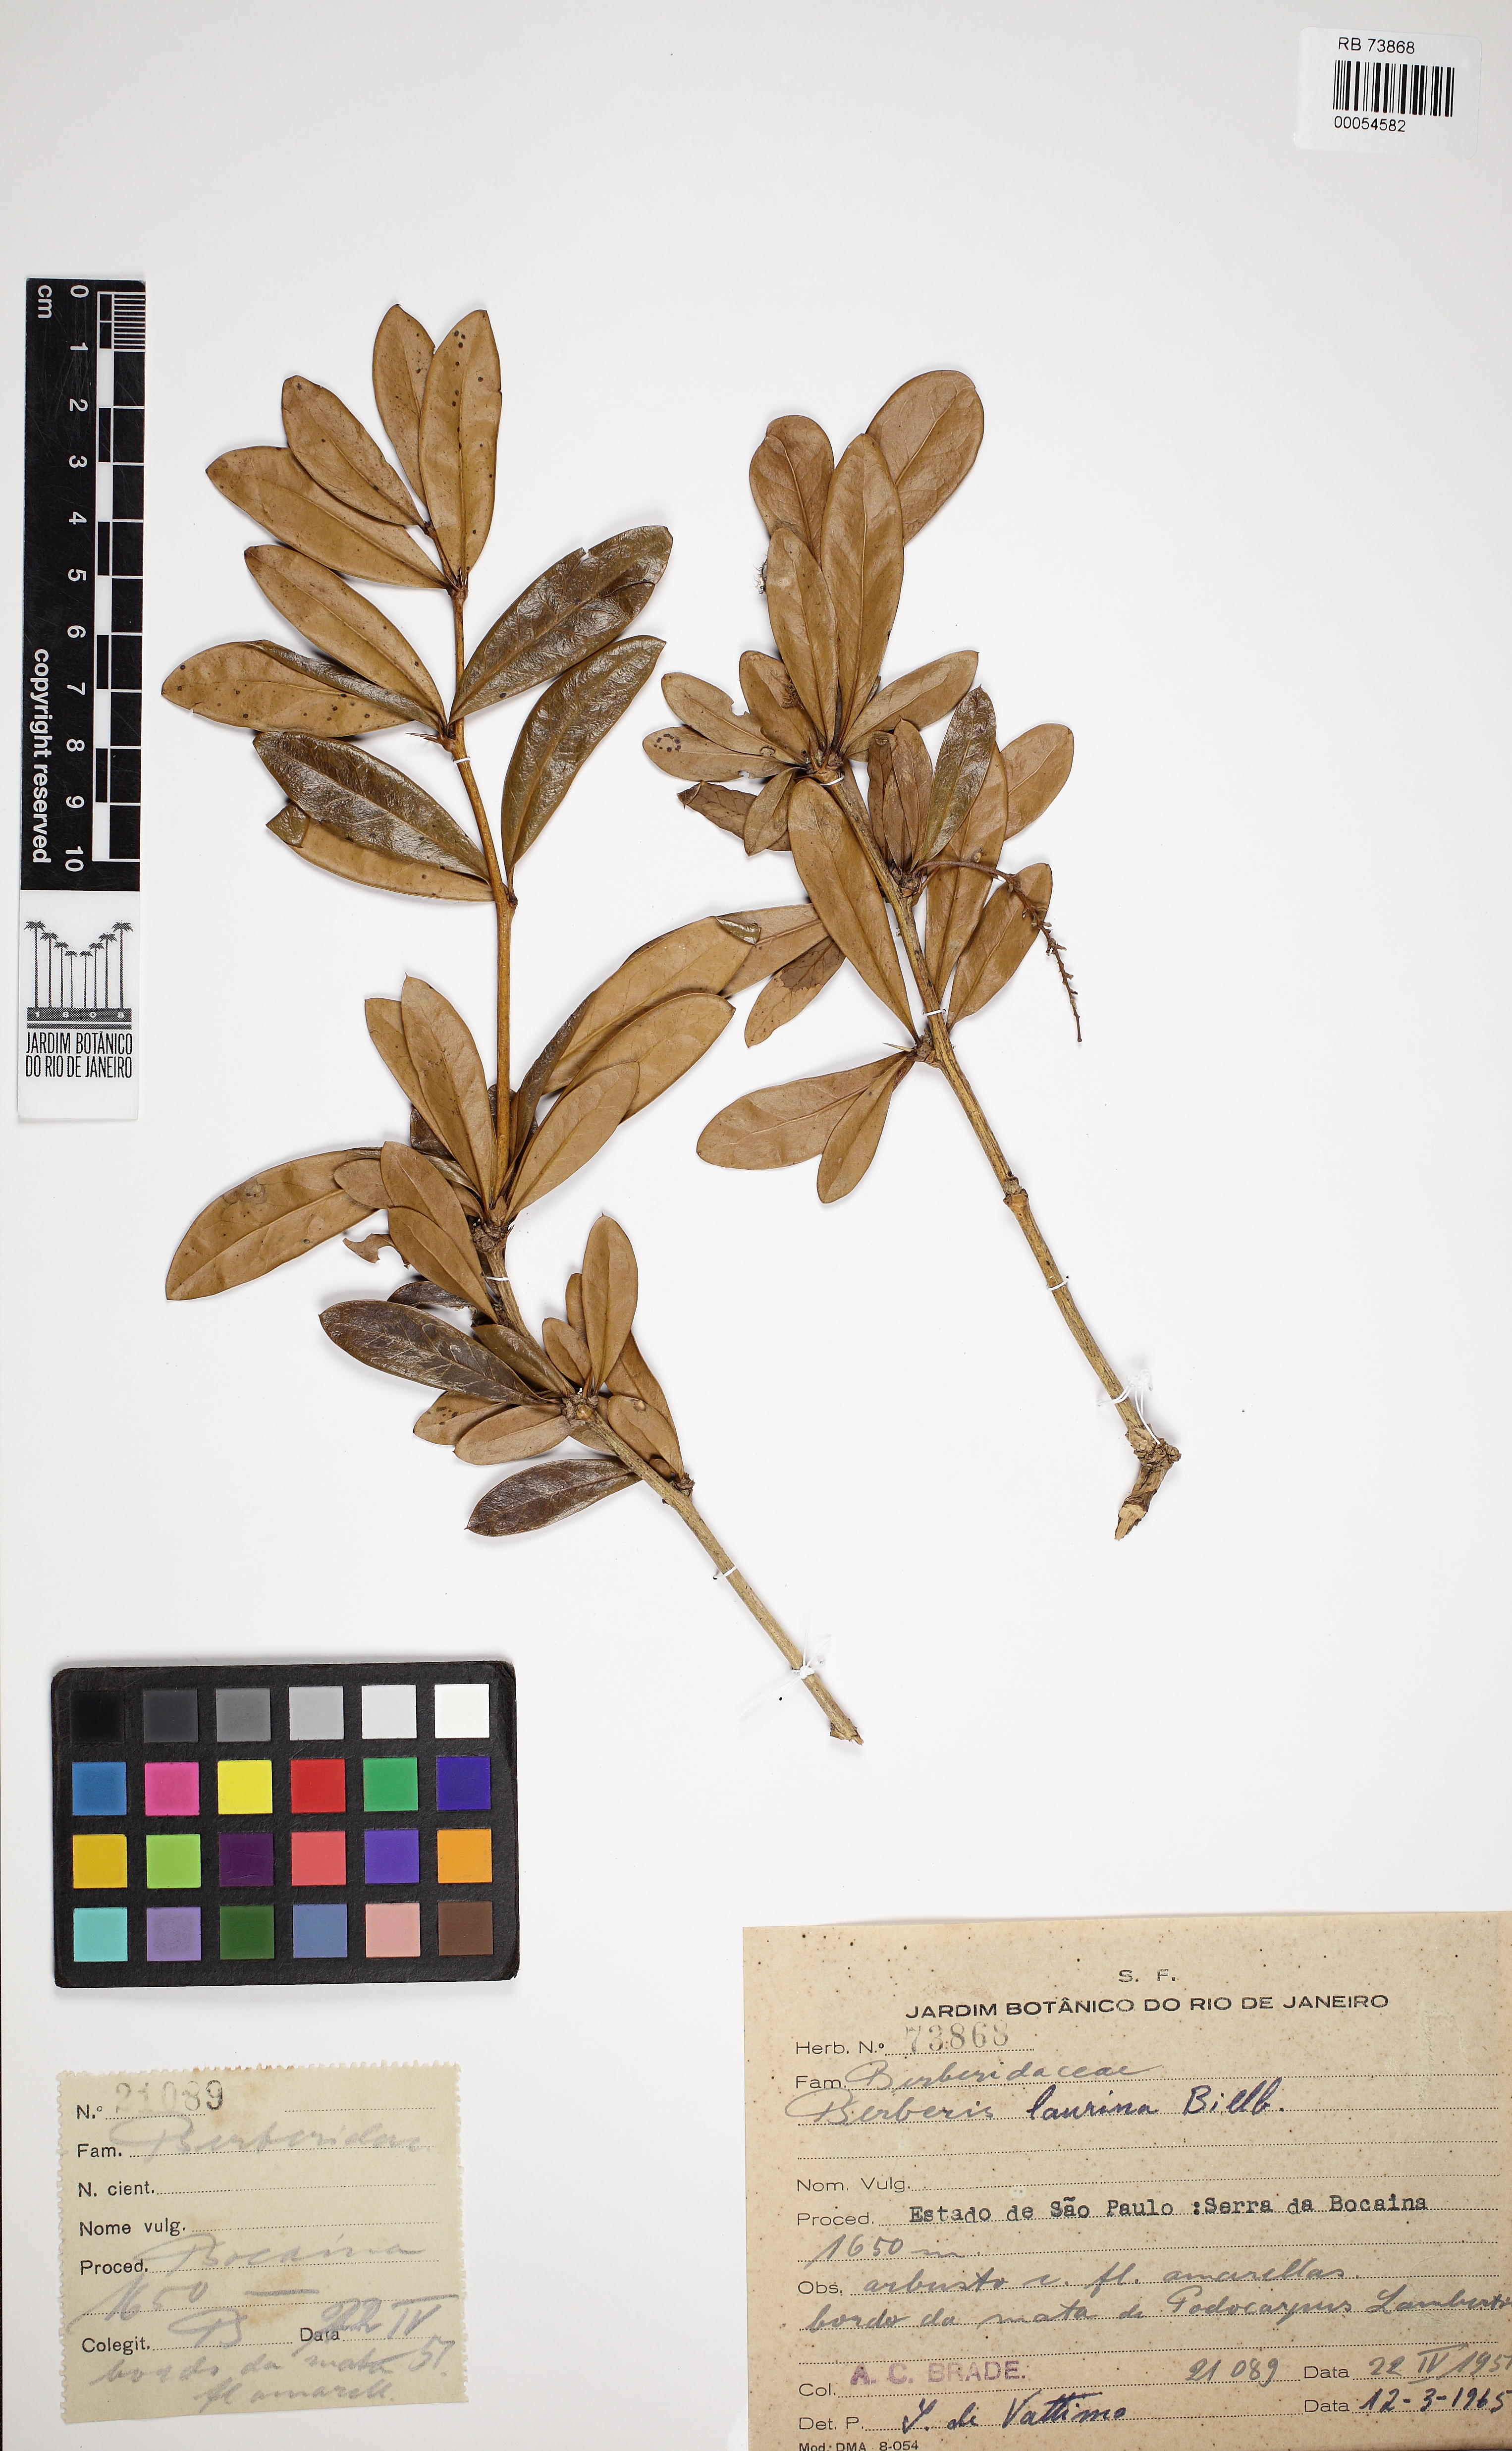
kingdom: Plantae
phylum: Tracheophyta
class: Magnoliopsida
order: Ranunculales
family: Berberidaceae
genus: Berberis
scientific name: Berberis laurina
